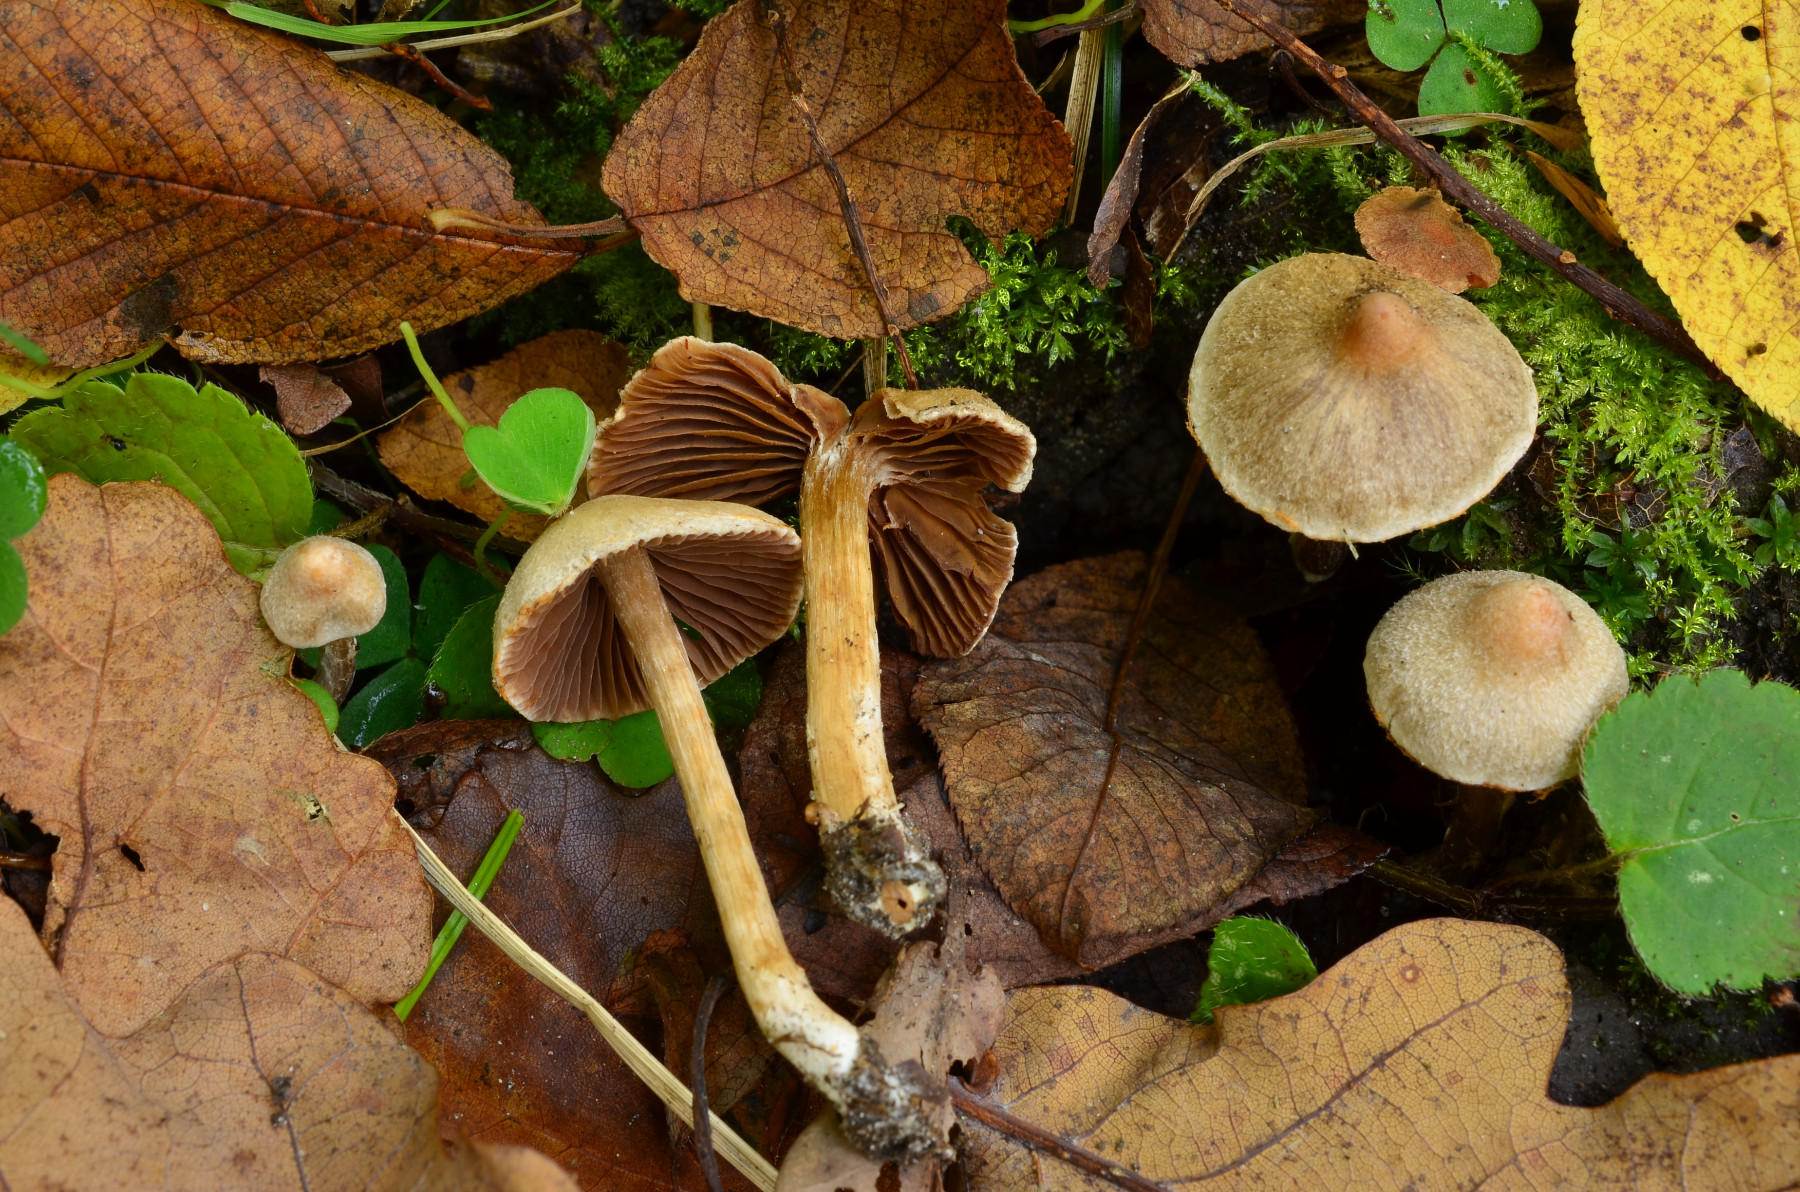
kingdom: Fungi
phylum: Basidiomycota
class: Agaricomycetes
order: Agaricales
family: Cortinariaceae
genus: Cortinarius
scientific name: Cortinarius geraniolens
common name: geranium-slørhat
